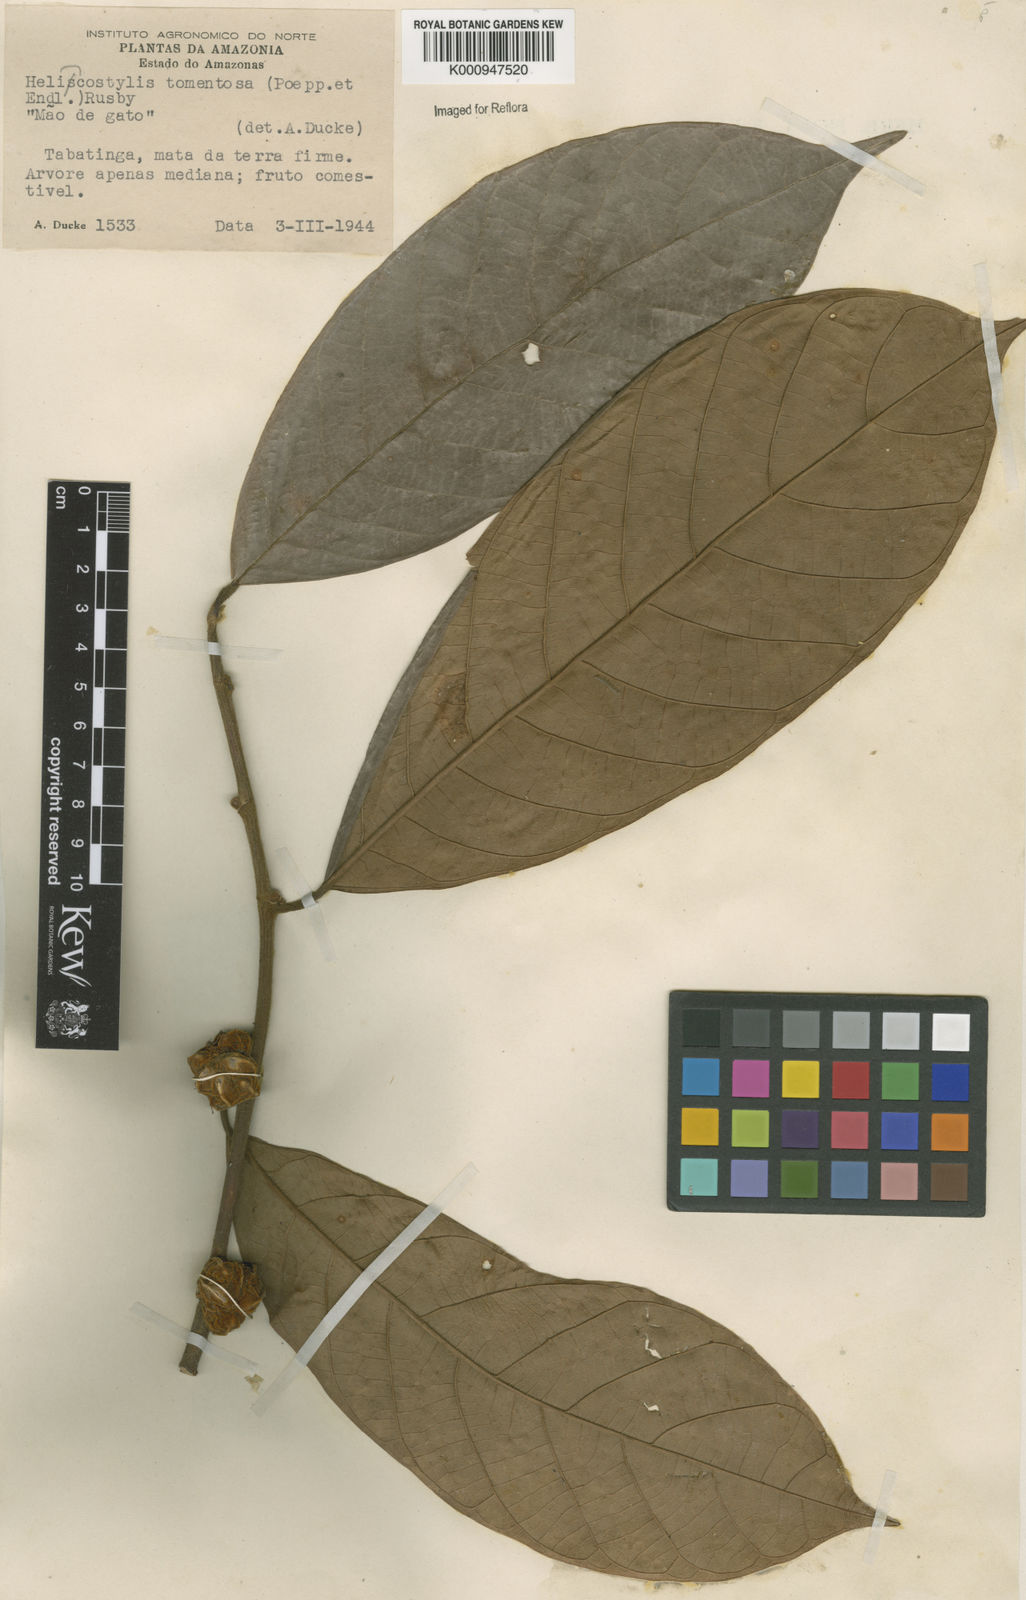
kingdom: Plantae
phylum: Tracheophyta
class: Magnoliopsida
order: Rosales
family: Moraceae
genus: Helicostylis
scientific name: Helicostylis
